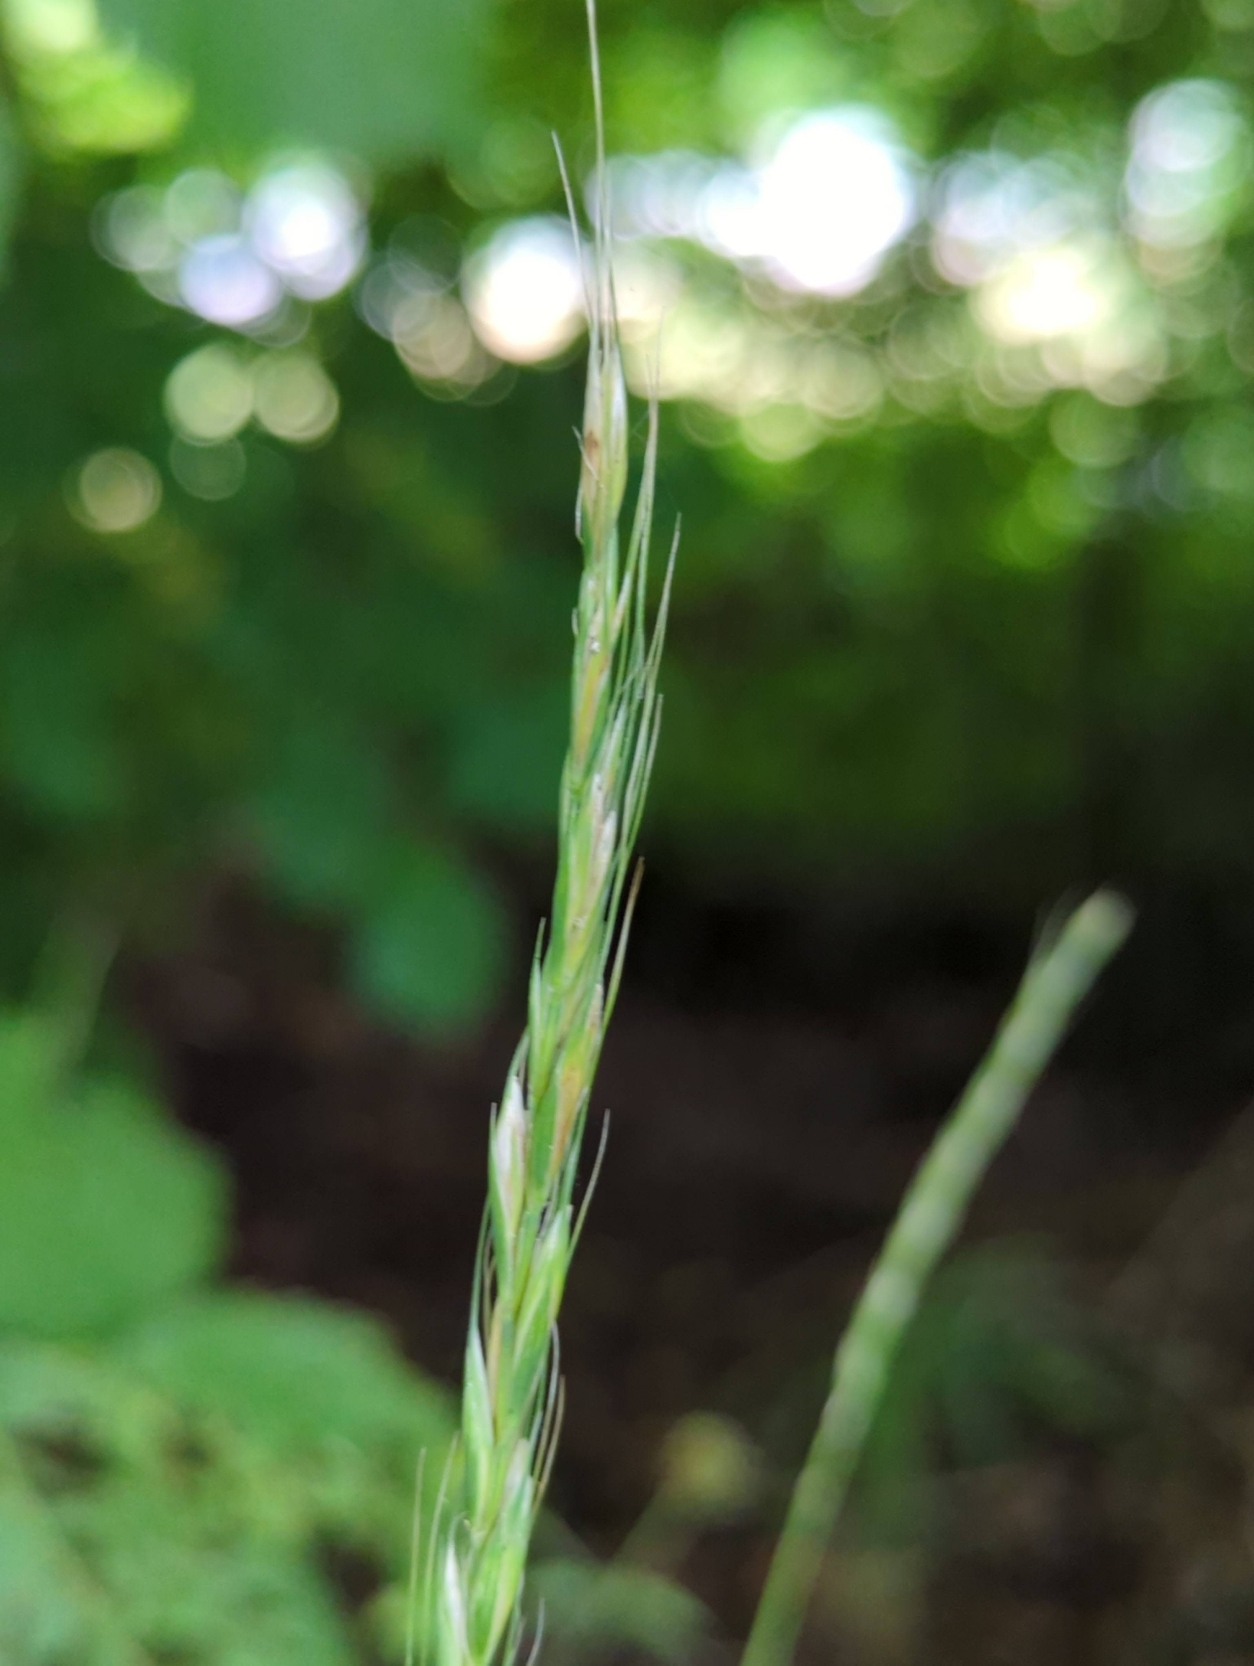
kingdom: Plantae
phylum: Tracheophyta
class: Liliopsida
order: Poales
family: Poaceae
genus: Elymus
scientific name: Elymus caninus
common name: Hundekvik
